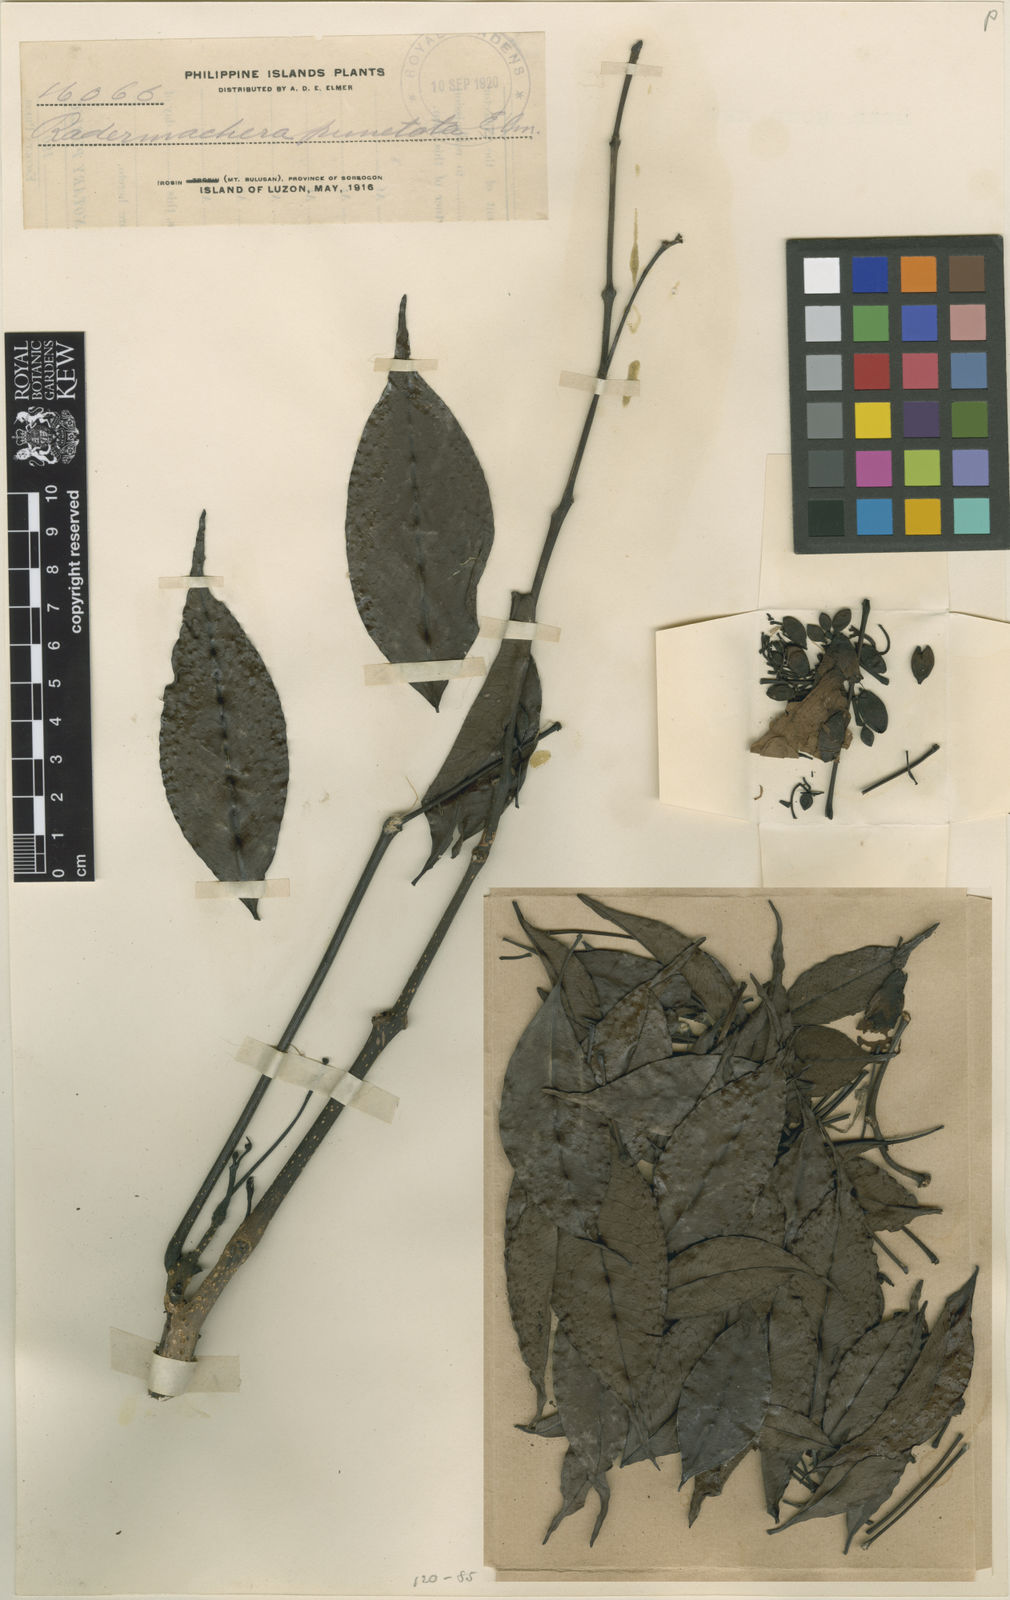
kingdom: Plantae
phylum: Tracheophyta
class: Magnoliopsida
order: Lamiales
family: Bignoniaceae
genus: Radermachera
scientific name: Radermachera pinnata
